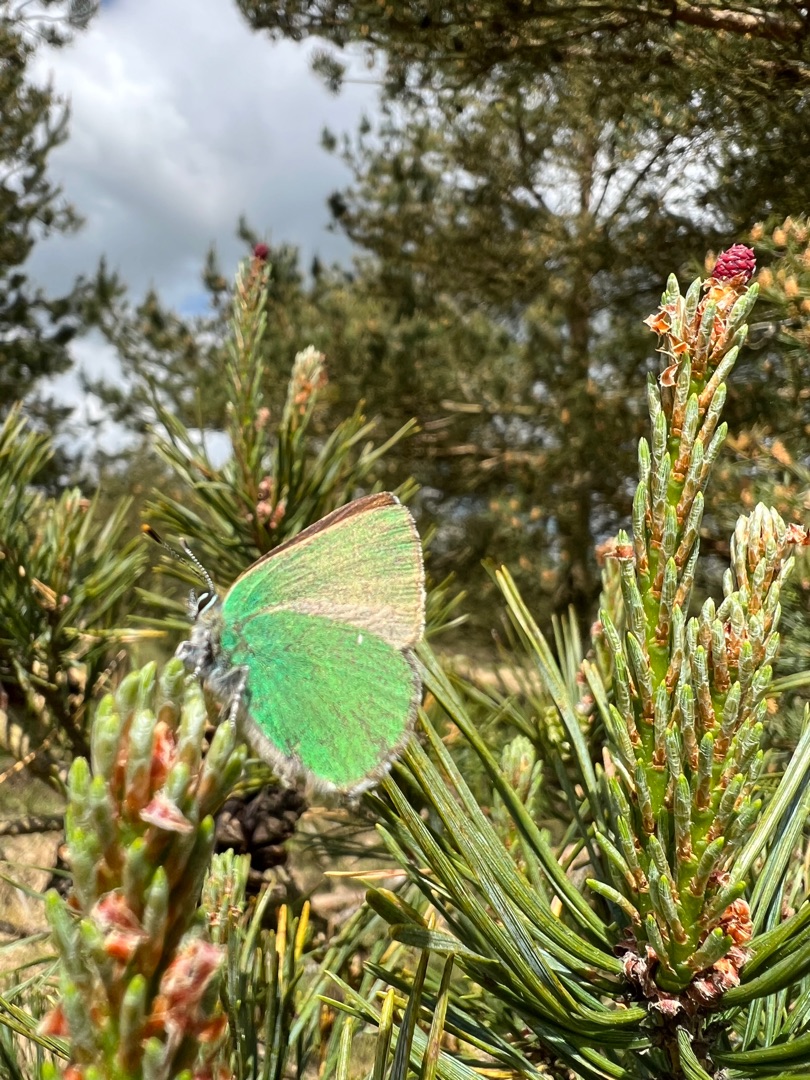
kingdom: Animalia
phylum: Arthropoda
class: Insecta
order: Lepidoptera
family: Lycaenidae
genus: Callophrys
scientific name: Callophrys rubi
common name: Grøn busksommerfugl
